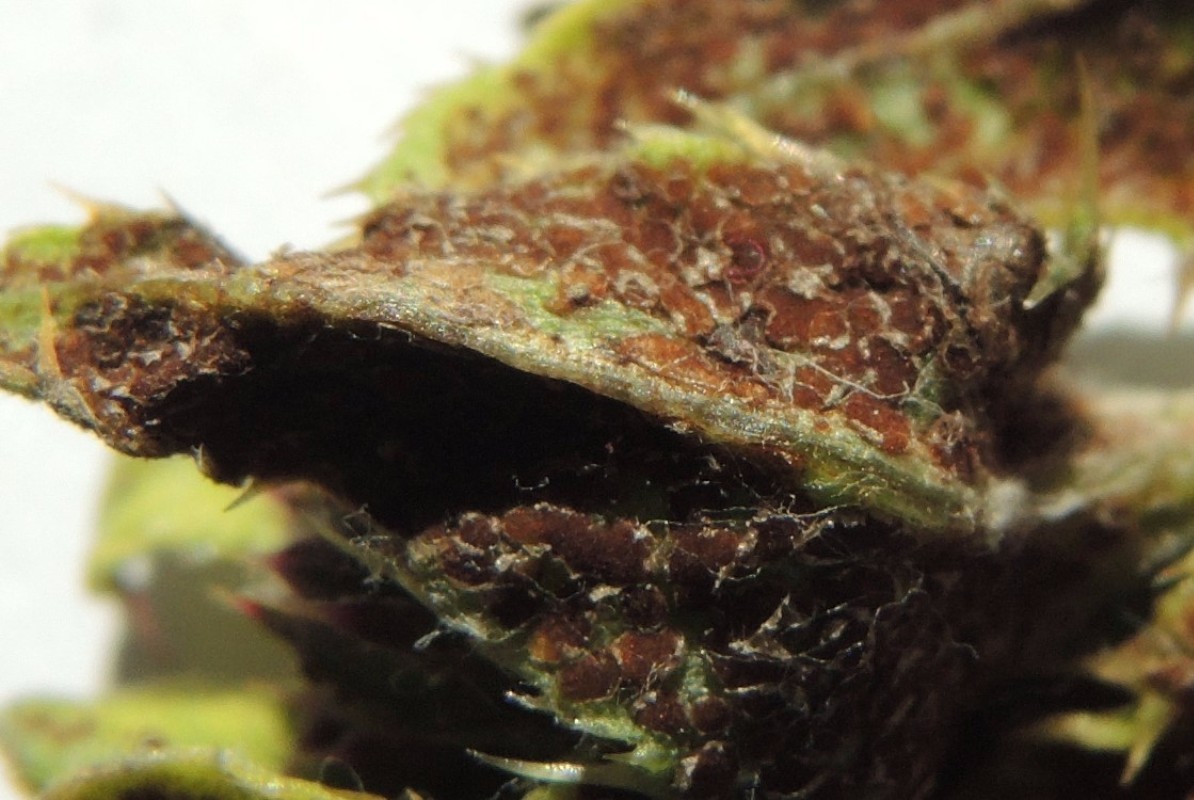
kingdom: Fungi
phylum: Basidiomycota
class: Pucciniomycetes
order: Pucciniales
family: Pucciniaceae
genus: Puccinia
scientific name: Puccinia suaveolens
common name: tidsel-tvecellerust
